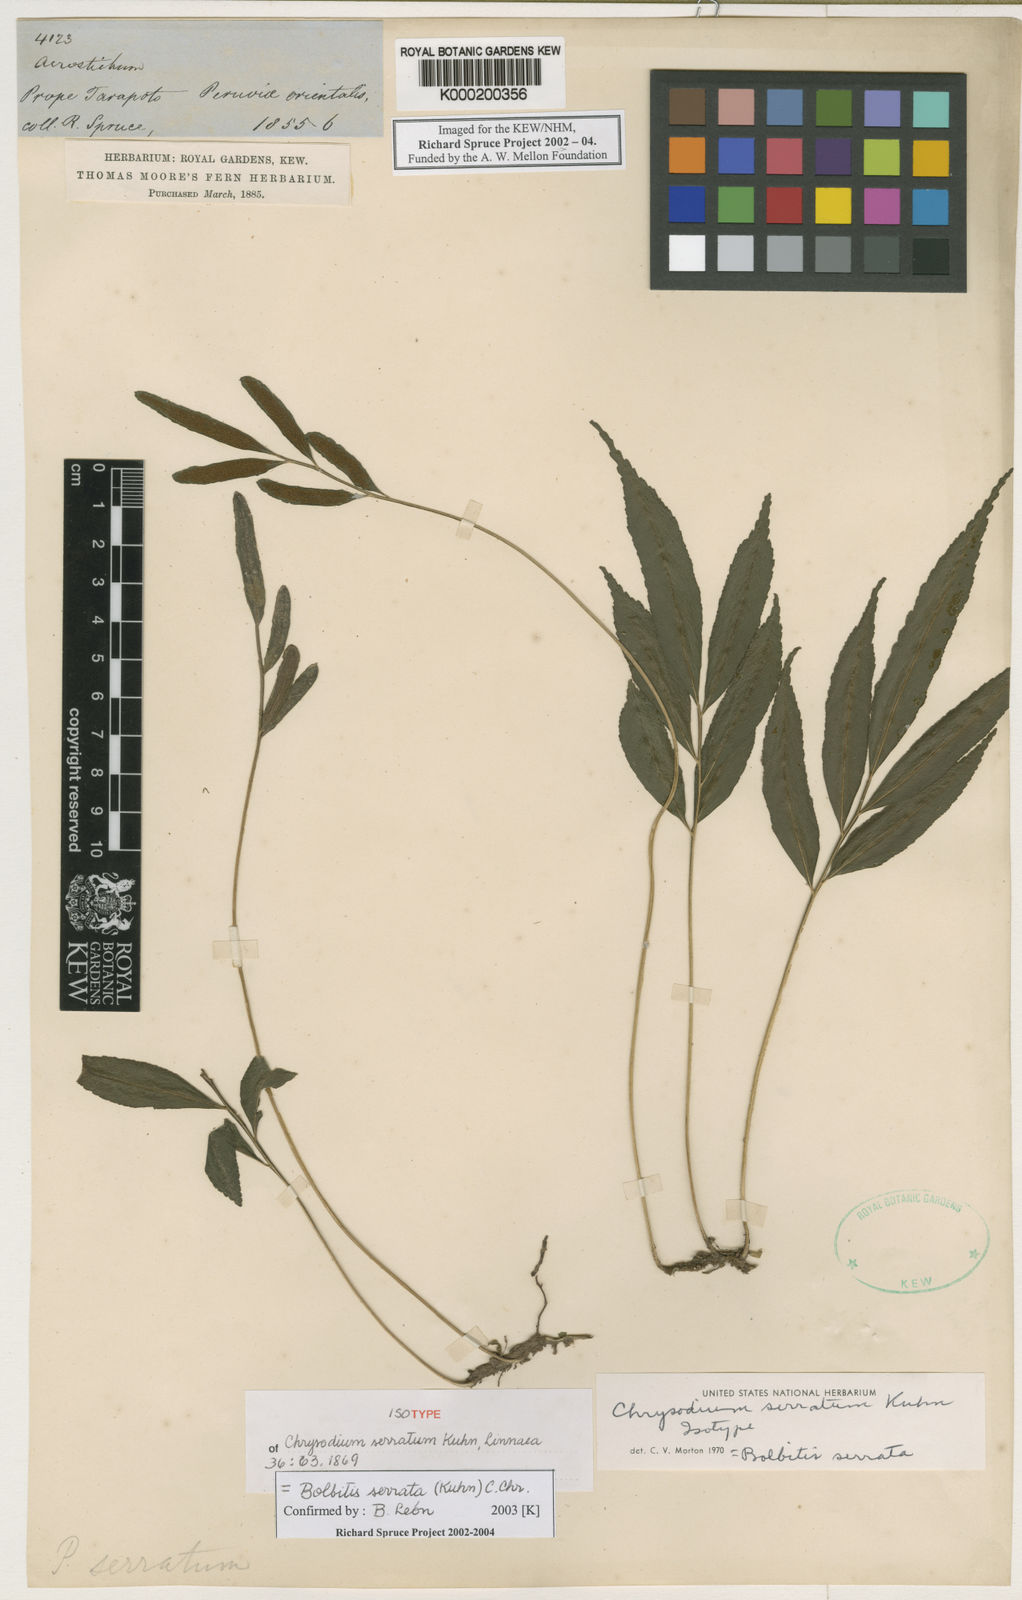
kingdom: Plantae
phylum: Tracheophyta
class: Polypodiopsida
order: Polypodiales
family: Dryopteridaceae
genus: Bolbitis
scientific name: Bolbitis serrata
